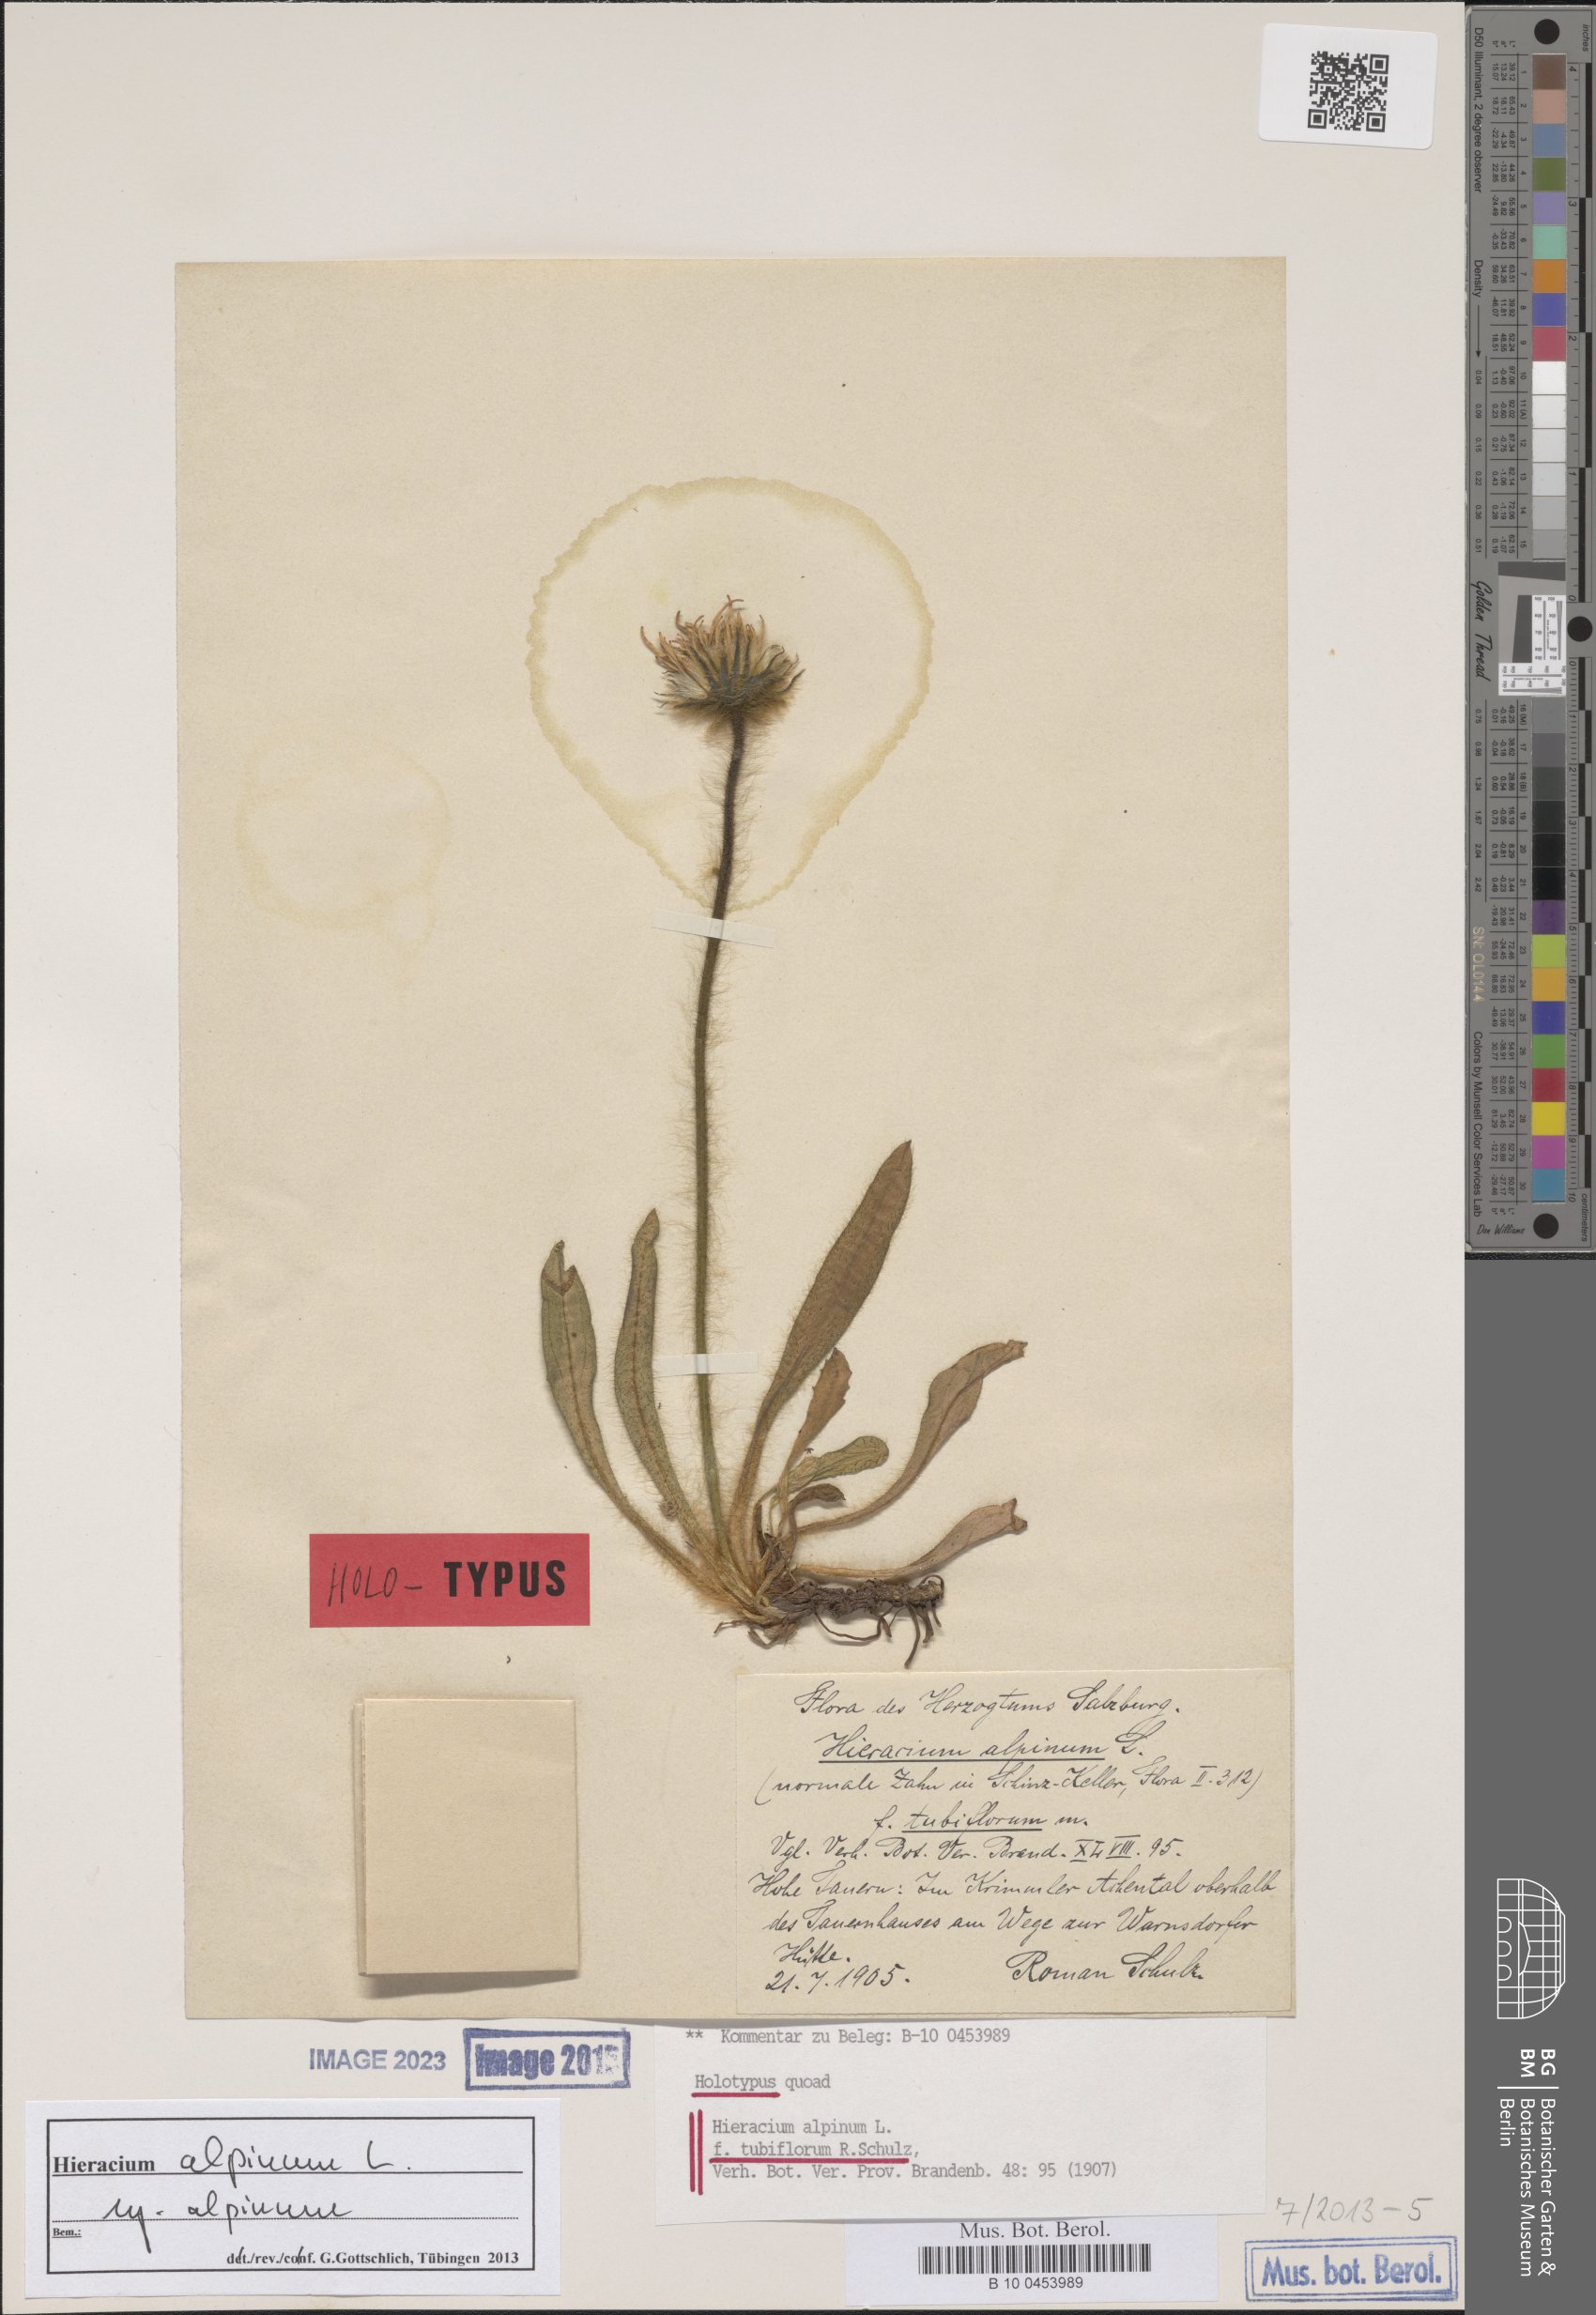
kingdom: Plantae
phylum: Tracheophyta
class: Magnoliopsida
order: Asterales
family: Asteraceae
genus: Hieracium
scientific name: Hieracium alpinum
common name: Alpine hawkweed
